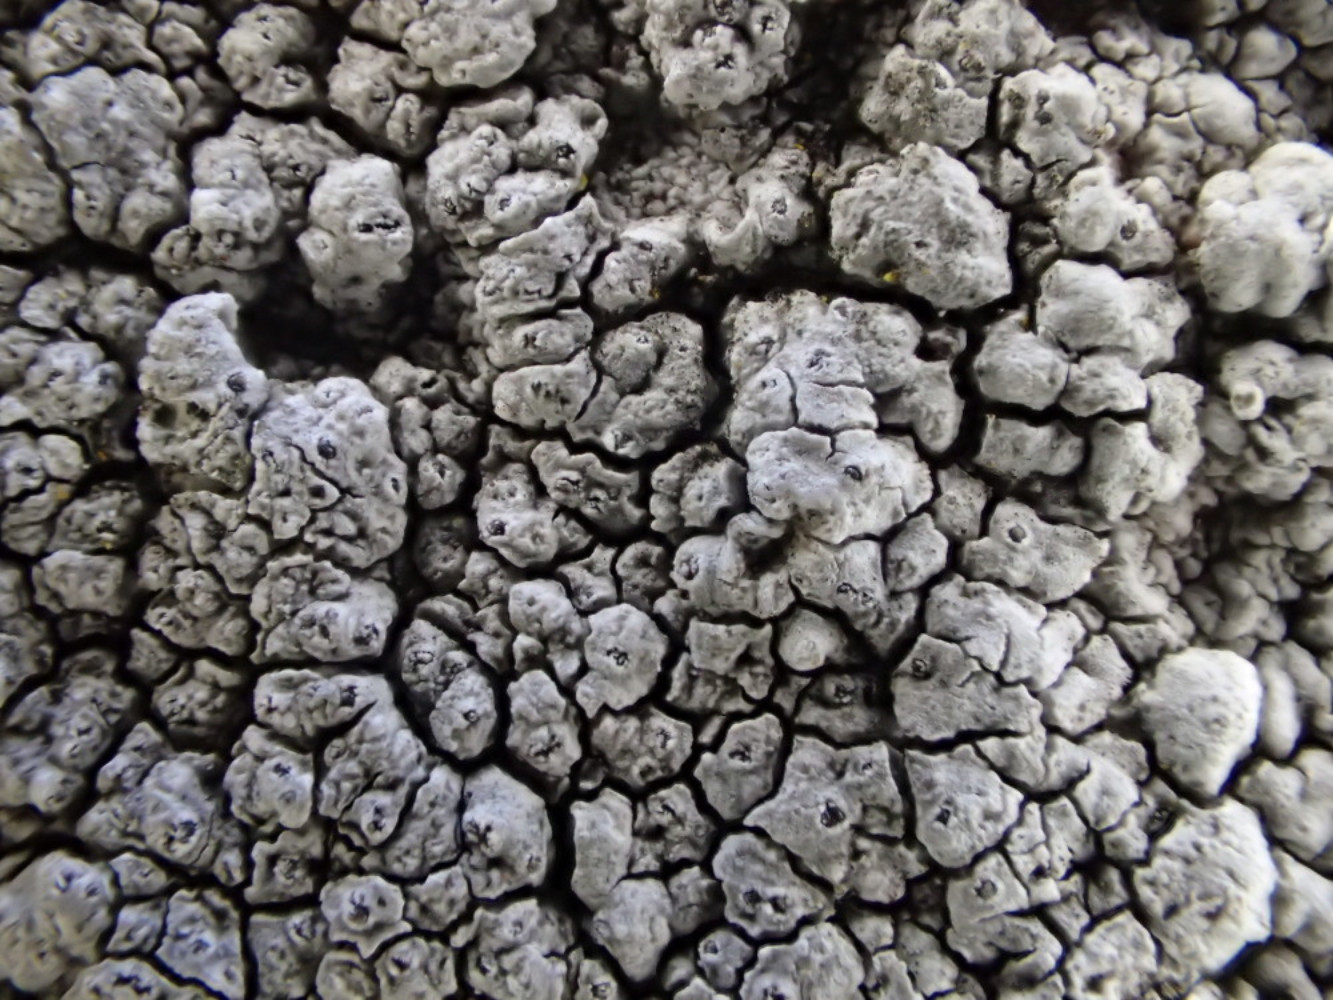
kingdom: Fungi
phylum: Ascomycota
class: Lecanoromycetes
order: Pertusariales
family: Megasporaceae
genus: Aspicilia
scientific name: Aspicilia
